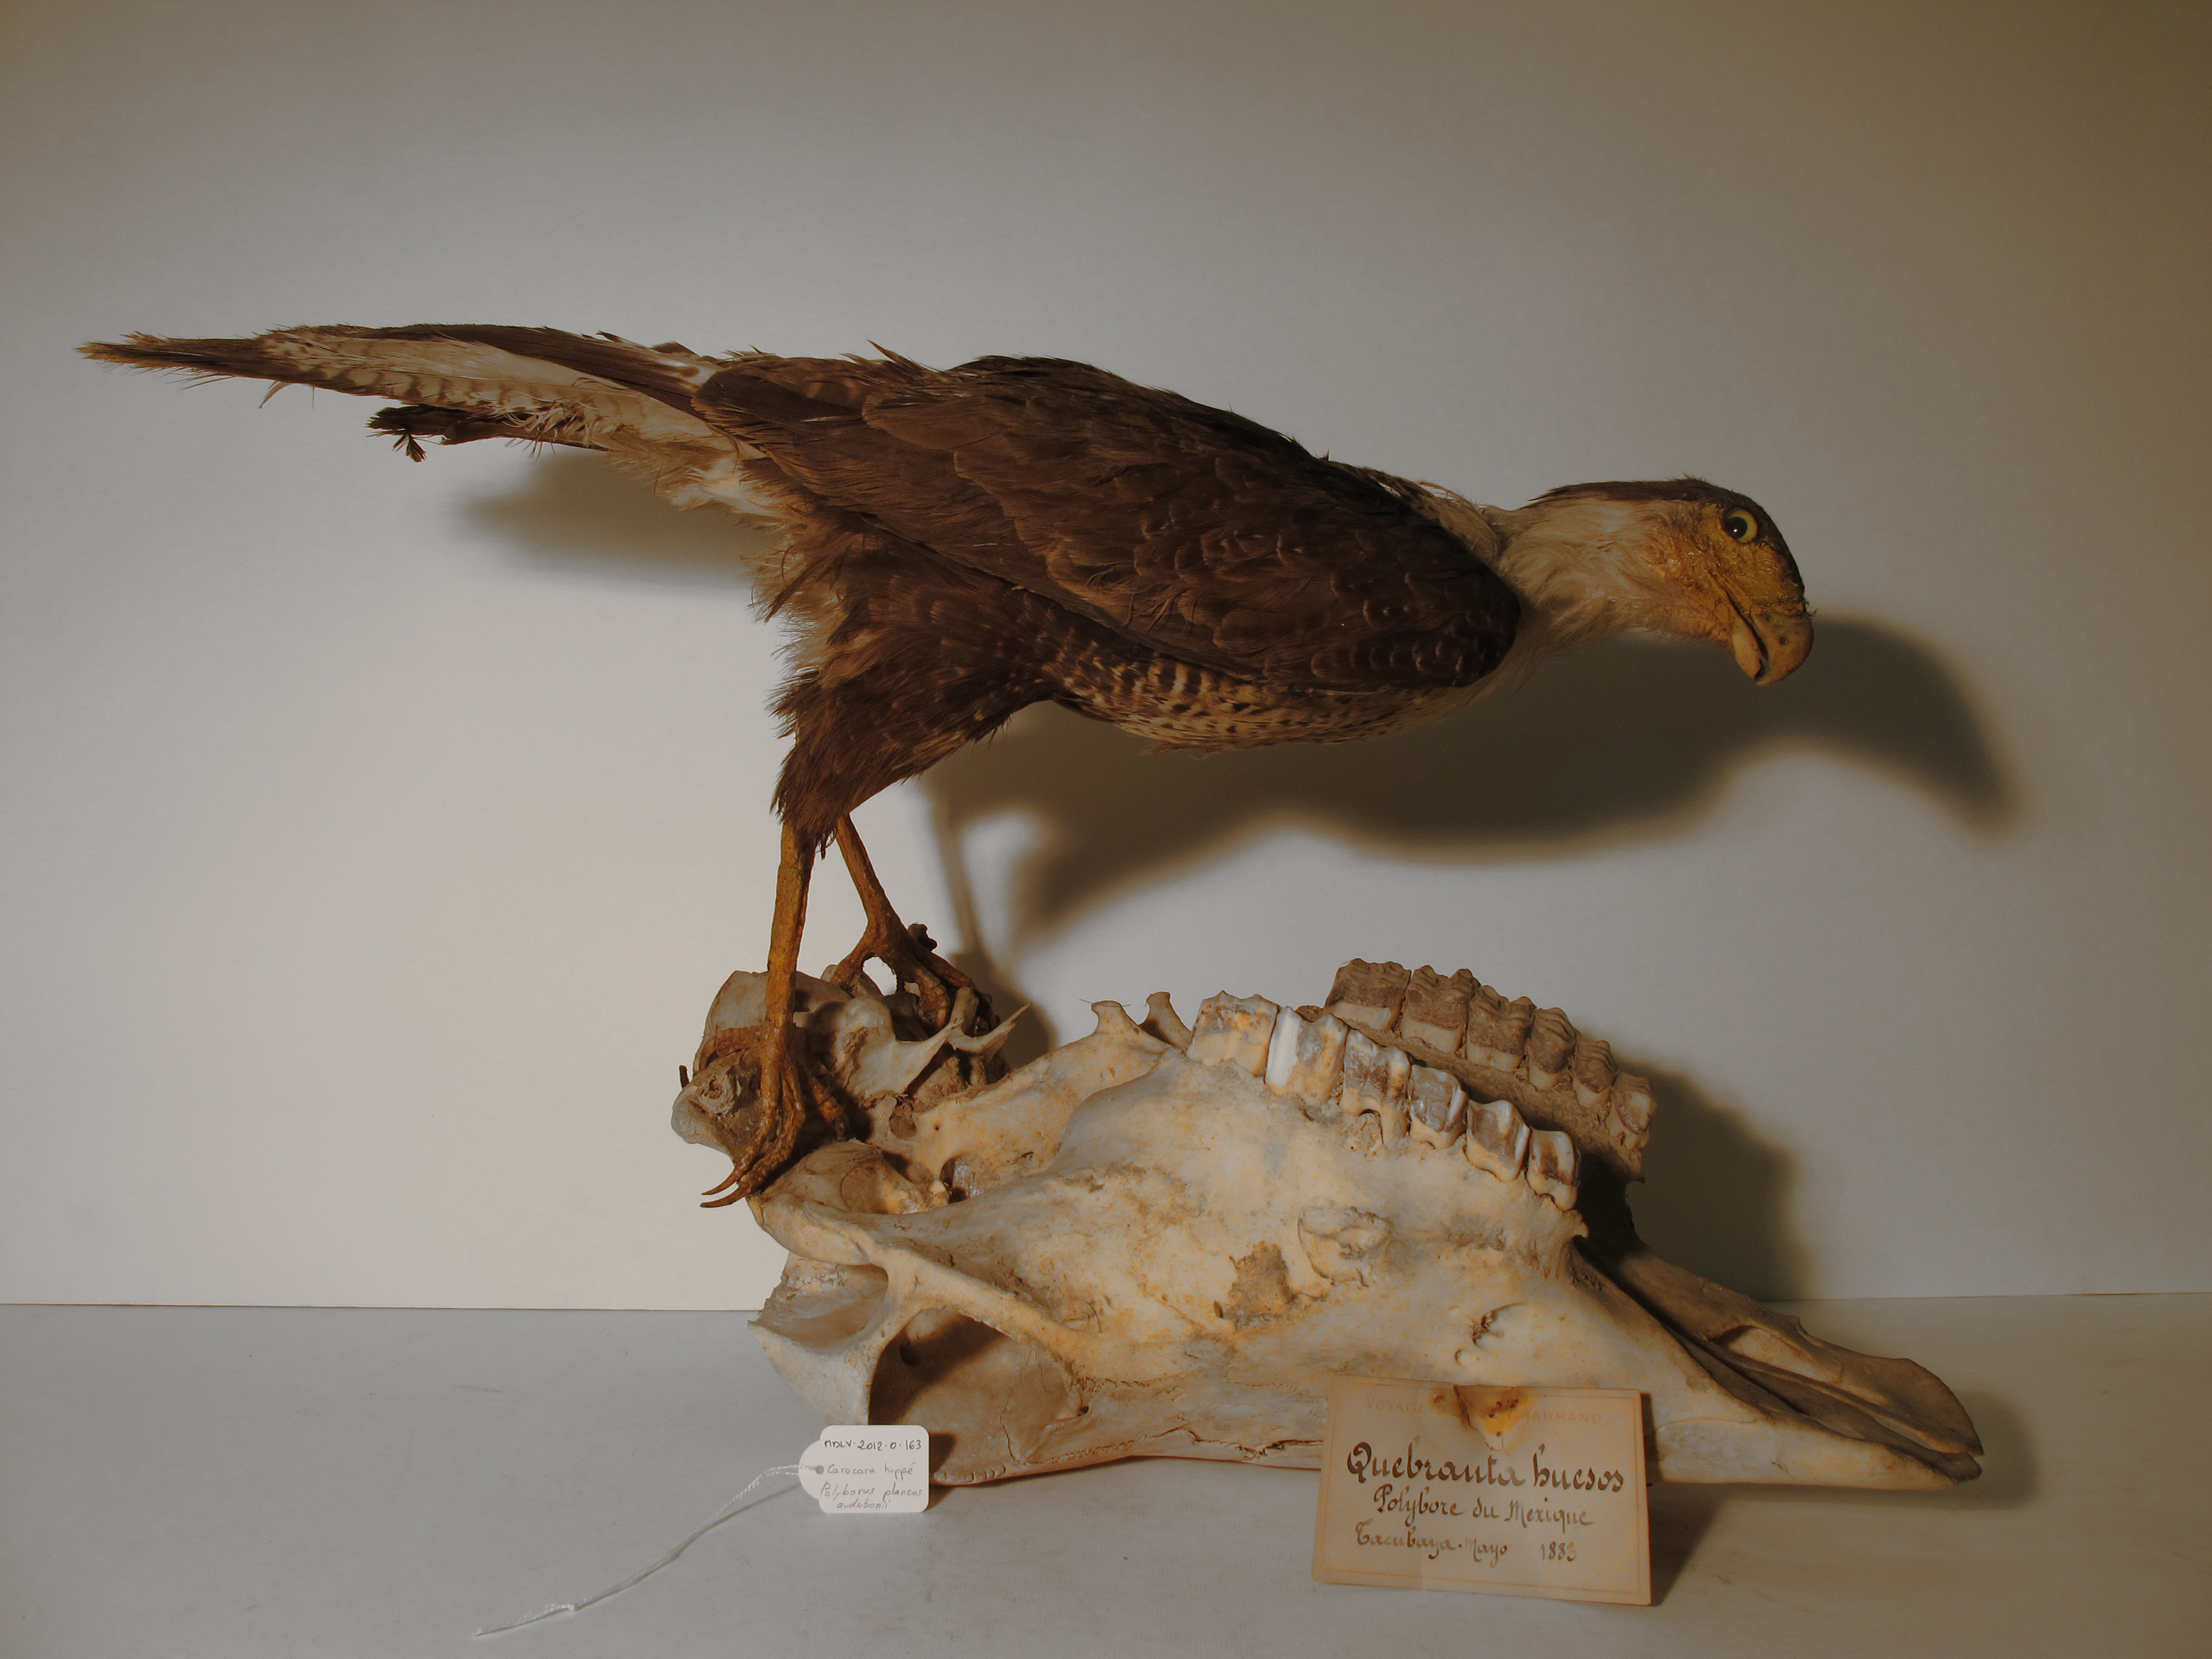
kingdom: Animalia
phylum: Chordata
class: Aves
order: Falconiformes
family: Falconidae
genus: Caracara
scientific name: Caracara plancus
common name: Crested Caracara
